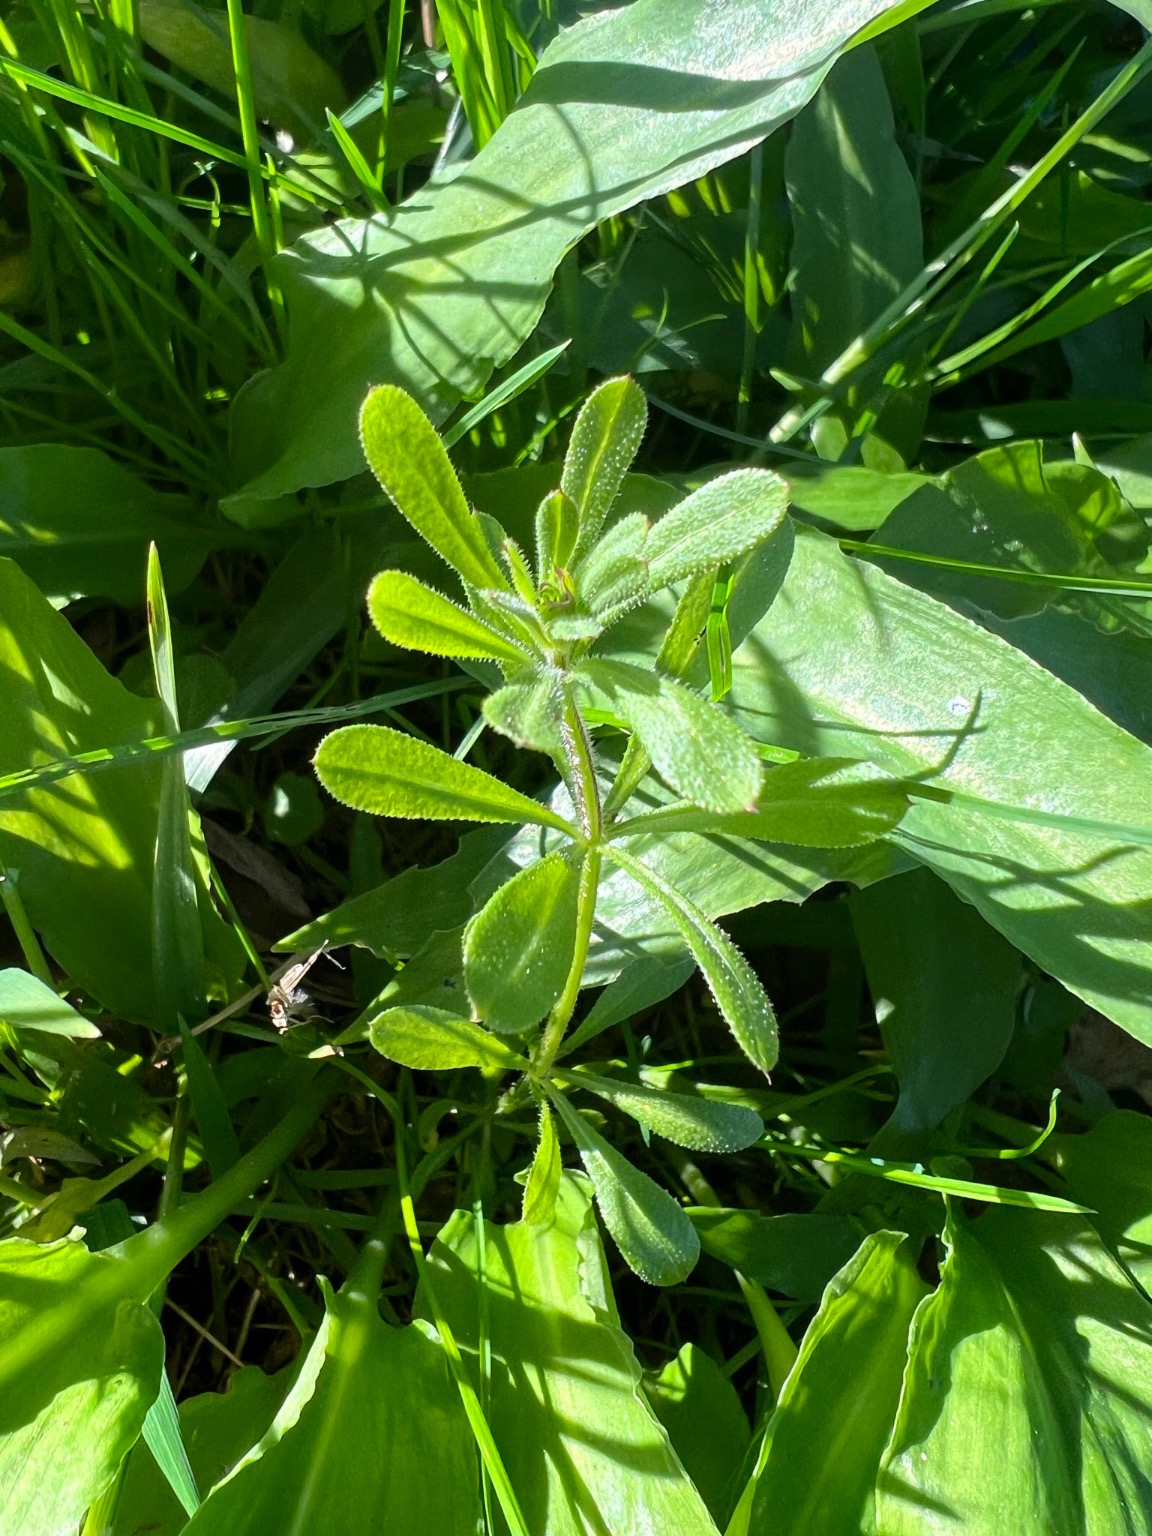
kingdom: Plantae
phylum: Tracheophyta
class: Magnoliopsida
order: Gentianales
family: Rubiaceae
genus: Galium
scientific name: Galium aparine
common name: Burre-snerre
